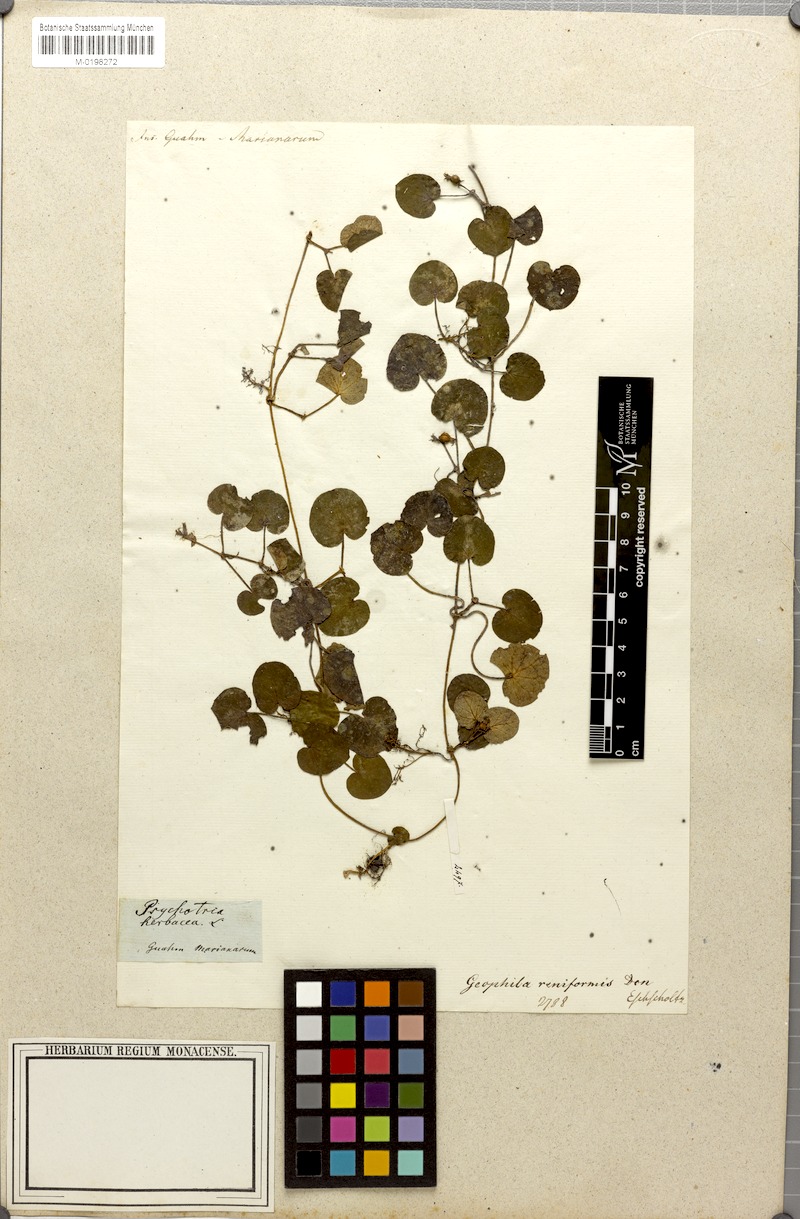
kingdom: Plantae
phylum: Tracheophyta
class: Magnoliopsida
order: Gentianales
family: Rubiaceae
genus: Geophila
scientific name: Geophila repens
